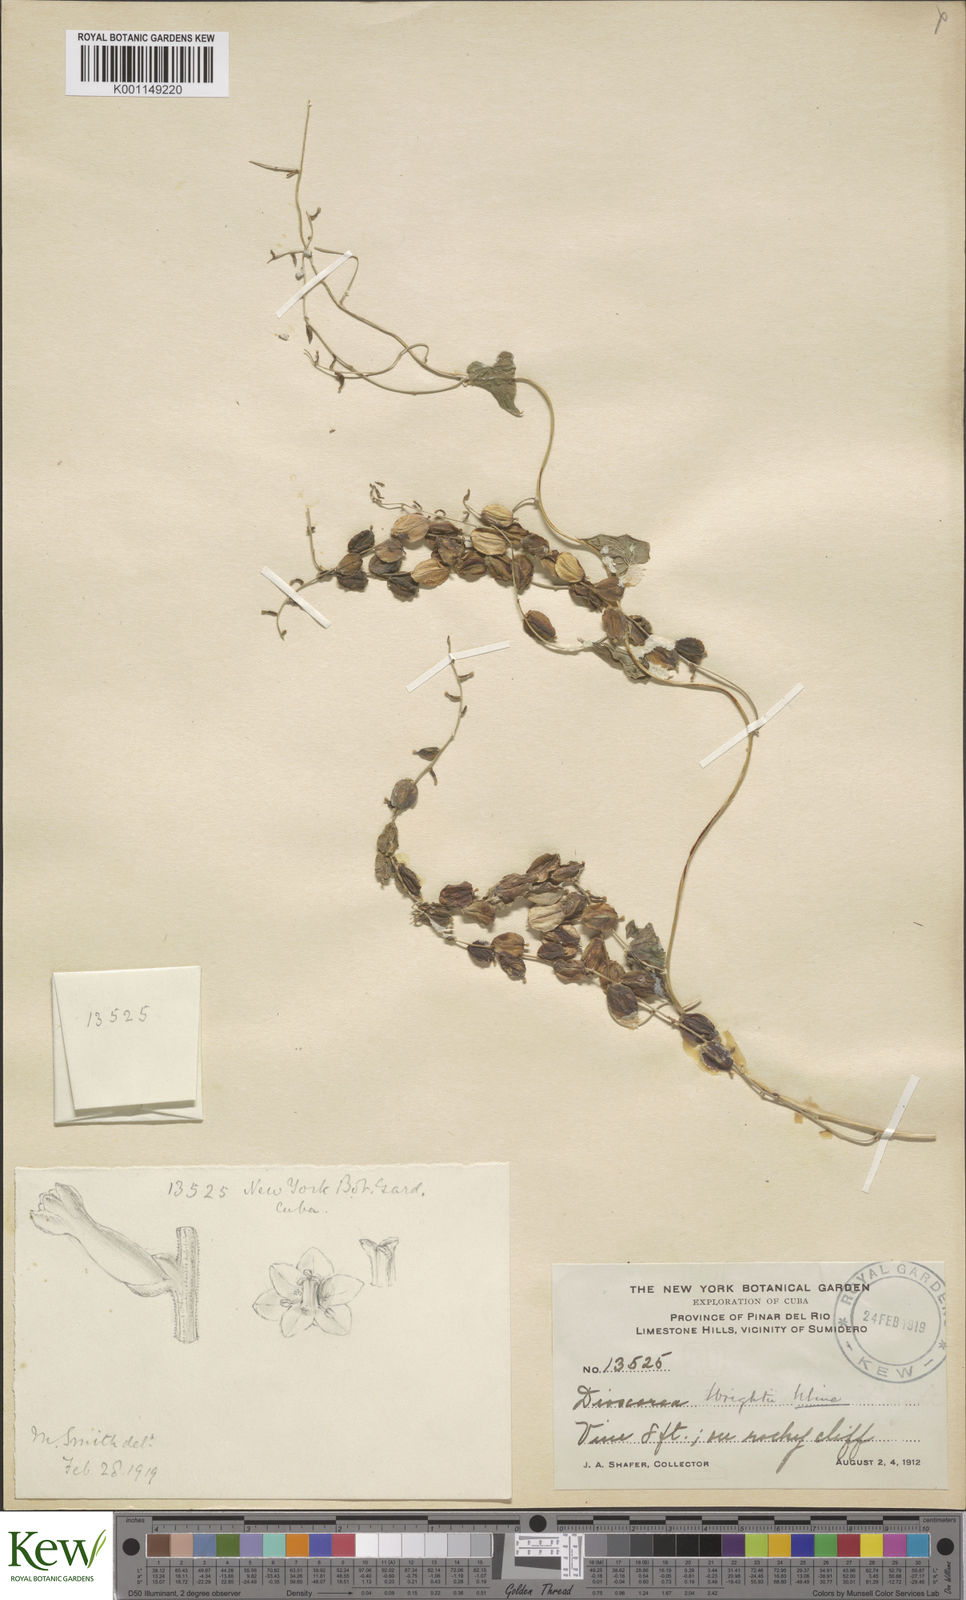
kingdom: Plantae
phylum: Tracheophyta
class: Liliopsida
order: Dioscoreales
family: Dioscoreaceae
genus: Dioscorea
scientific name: Dioscorea wrightii
